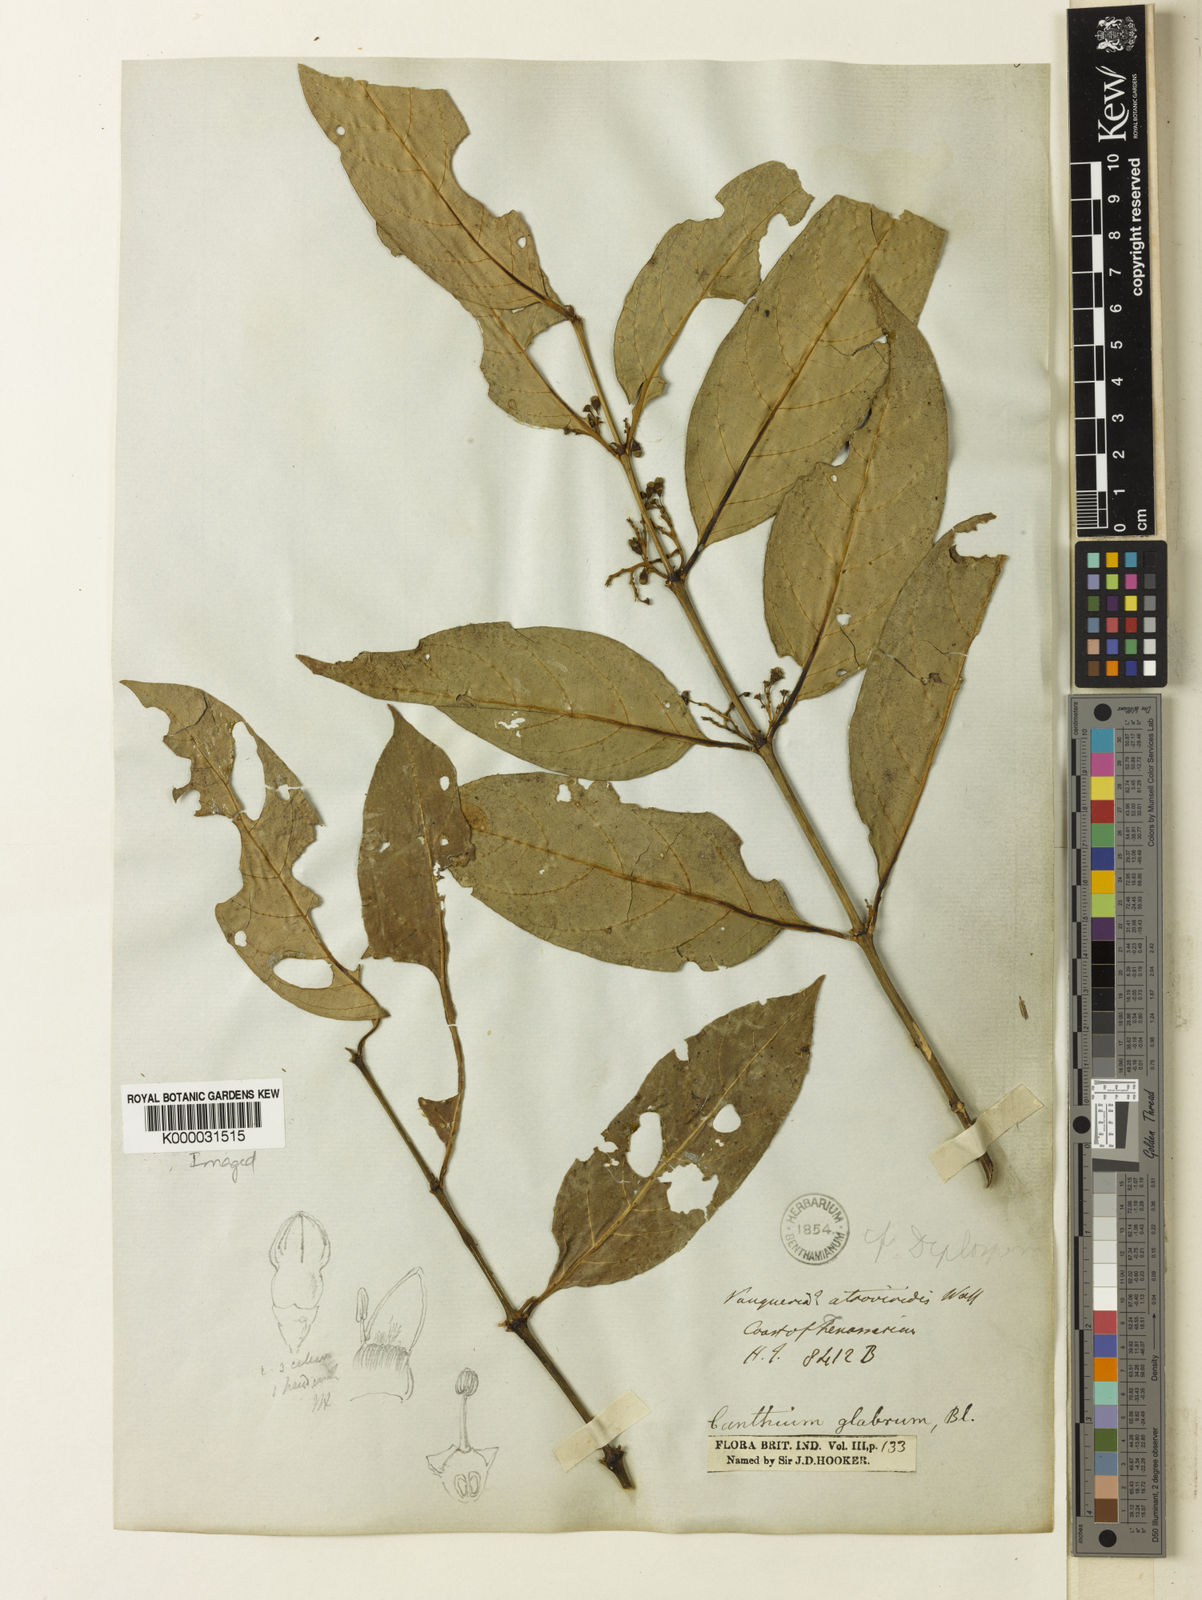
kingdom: Plantae
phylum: Tracheophyta
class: Magnoliopsida
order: Gentianales
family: Rubiaceae
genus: Canthiumera
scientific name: Canthiumera glabra
